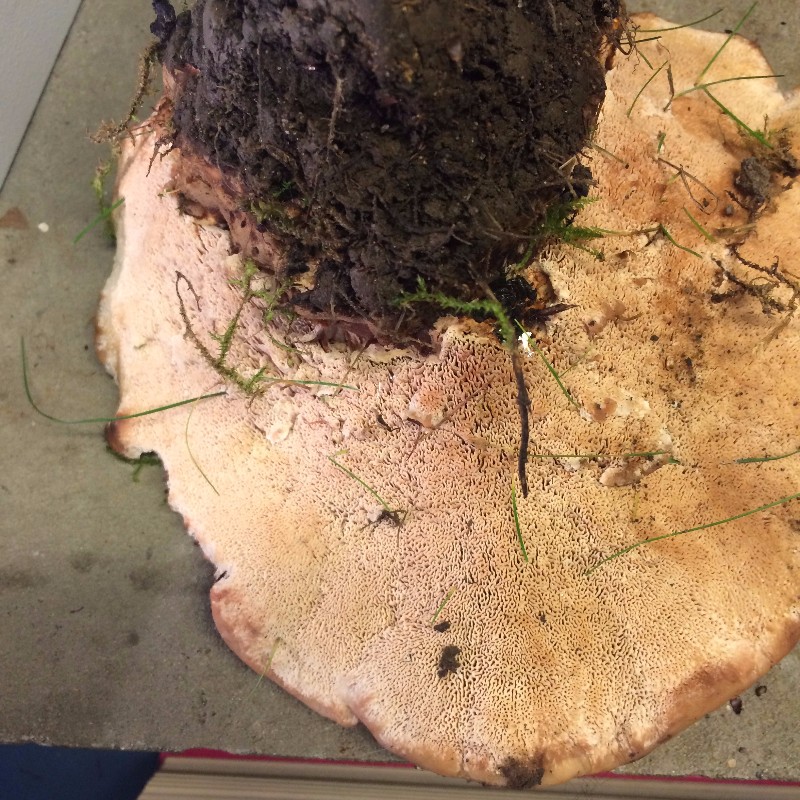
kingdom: Fungi
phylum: Basidiomycota
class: Agaricomycetes
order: Polyporales
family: Podoscyphaceae
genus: Abortiporus
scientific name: Abortiporus biennis
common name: rødmende pjalteporesvamp
